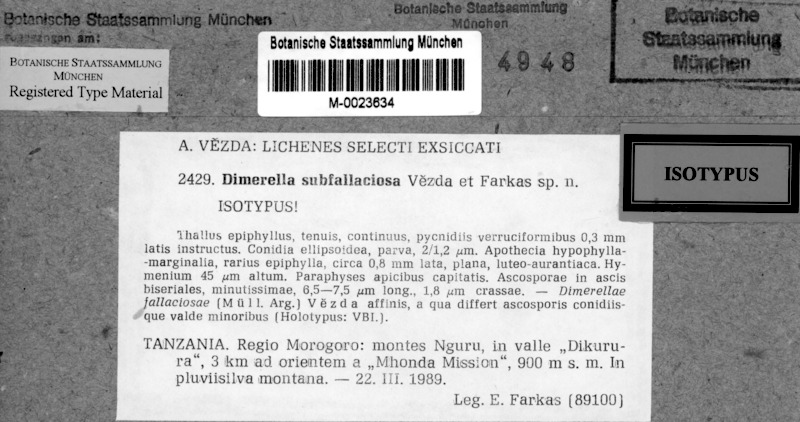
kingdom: Fungi
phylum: Ascomycota
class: Lecanoromycetes
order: Ostropales
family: Coenogoniaceae
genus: Coenogonium
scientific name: Coenogonium subfallaciosum
